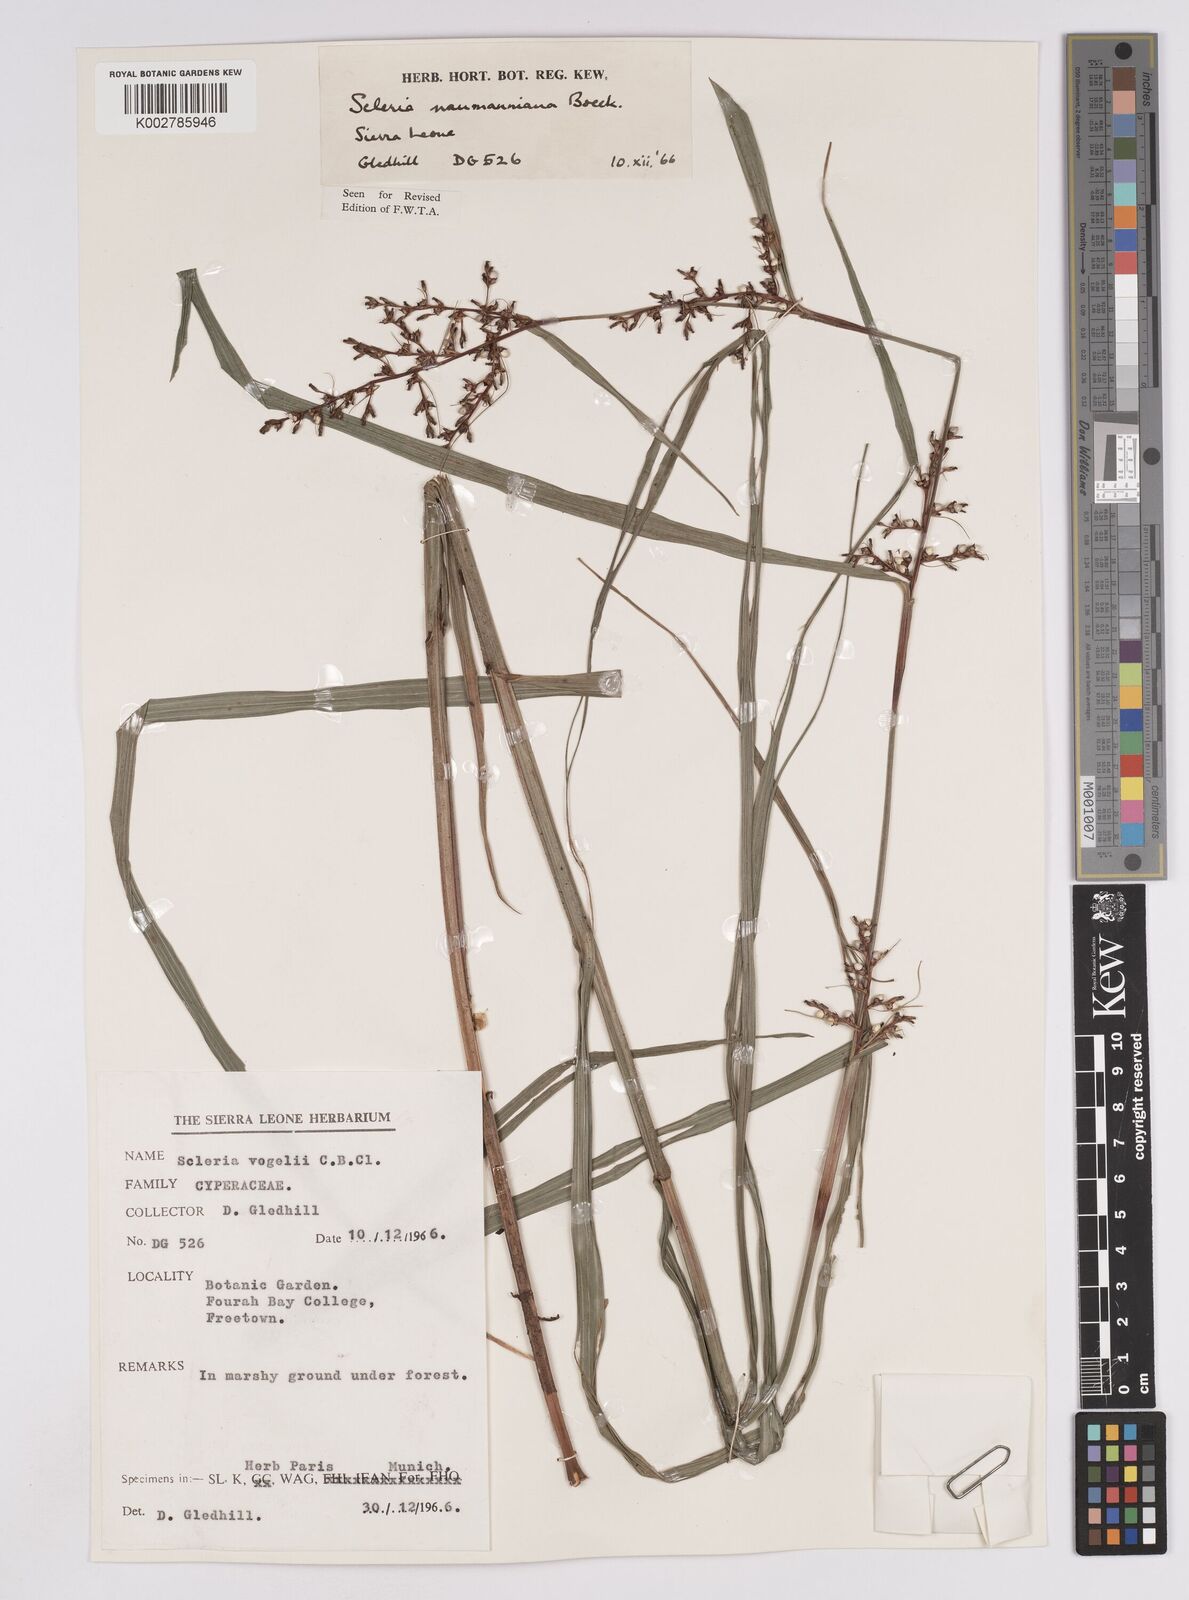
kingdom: Plantae
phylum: Tracheophyta
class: Liliopsida
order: Poales
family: Cyperaceae
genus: Scleria
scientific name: Scleria naumanniana
